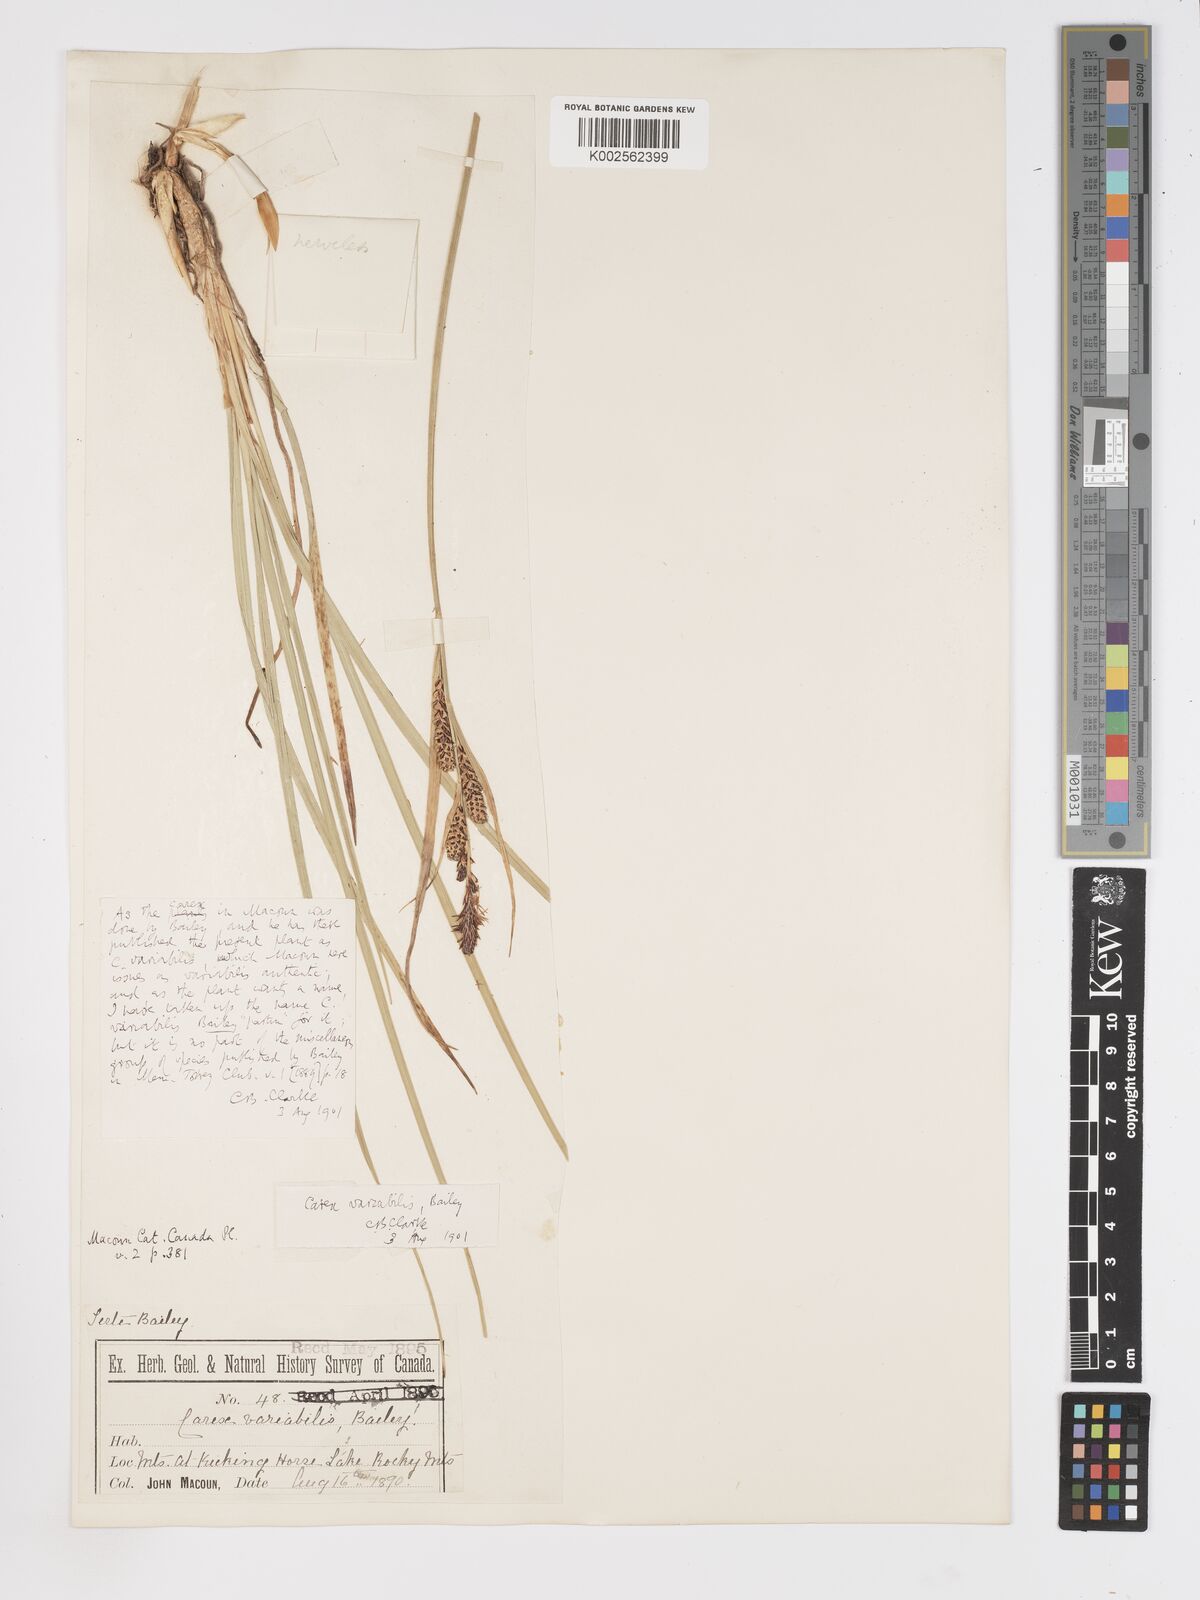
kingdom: Plantae
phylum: Tracheophyta
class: Liliopsida
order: Poales
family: Cyperaceae
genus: Carex
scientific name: Carex aquatilis
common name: Water sedge
